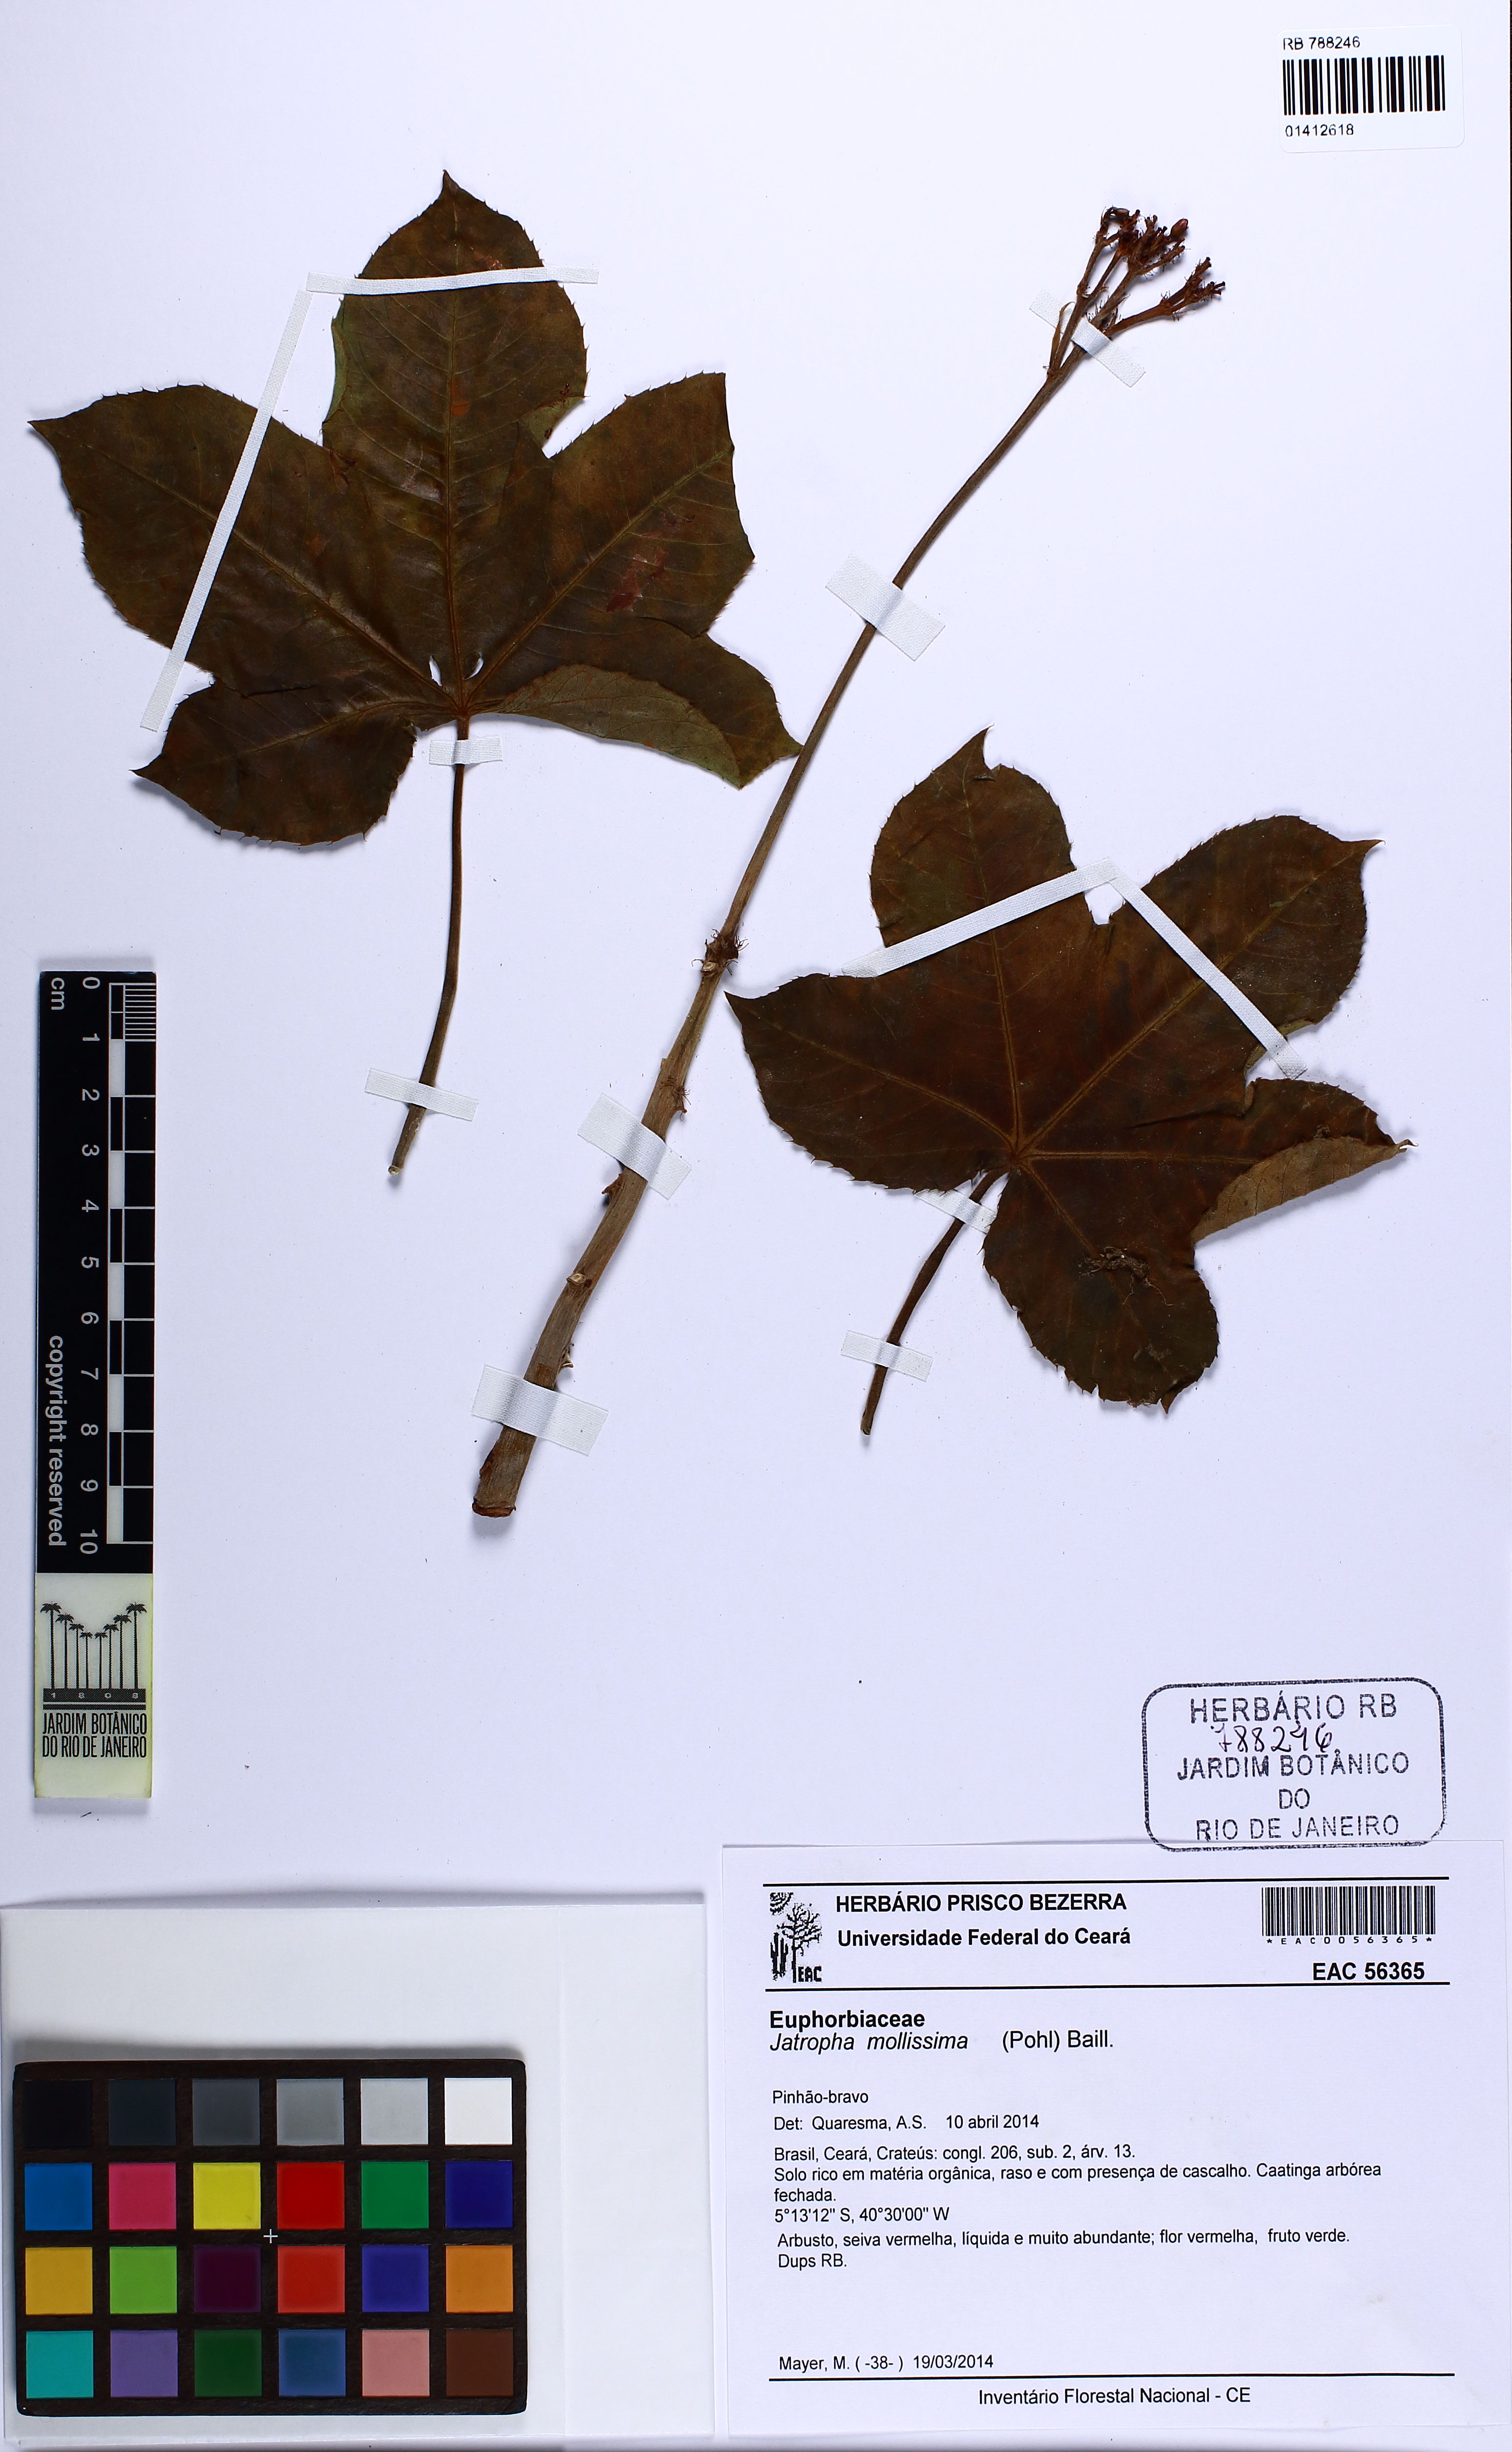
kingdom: Plantae
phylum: Tracheophyta
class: Magnoliopsida
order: Malpighiales
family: Euphorbiaceae
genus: Jatropha
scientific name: Jatropha mollissima
